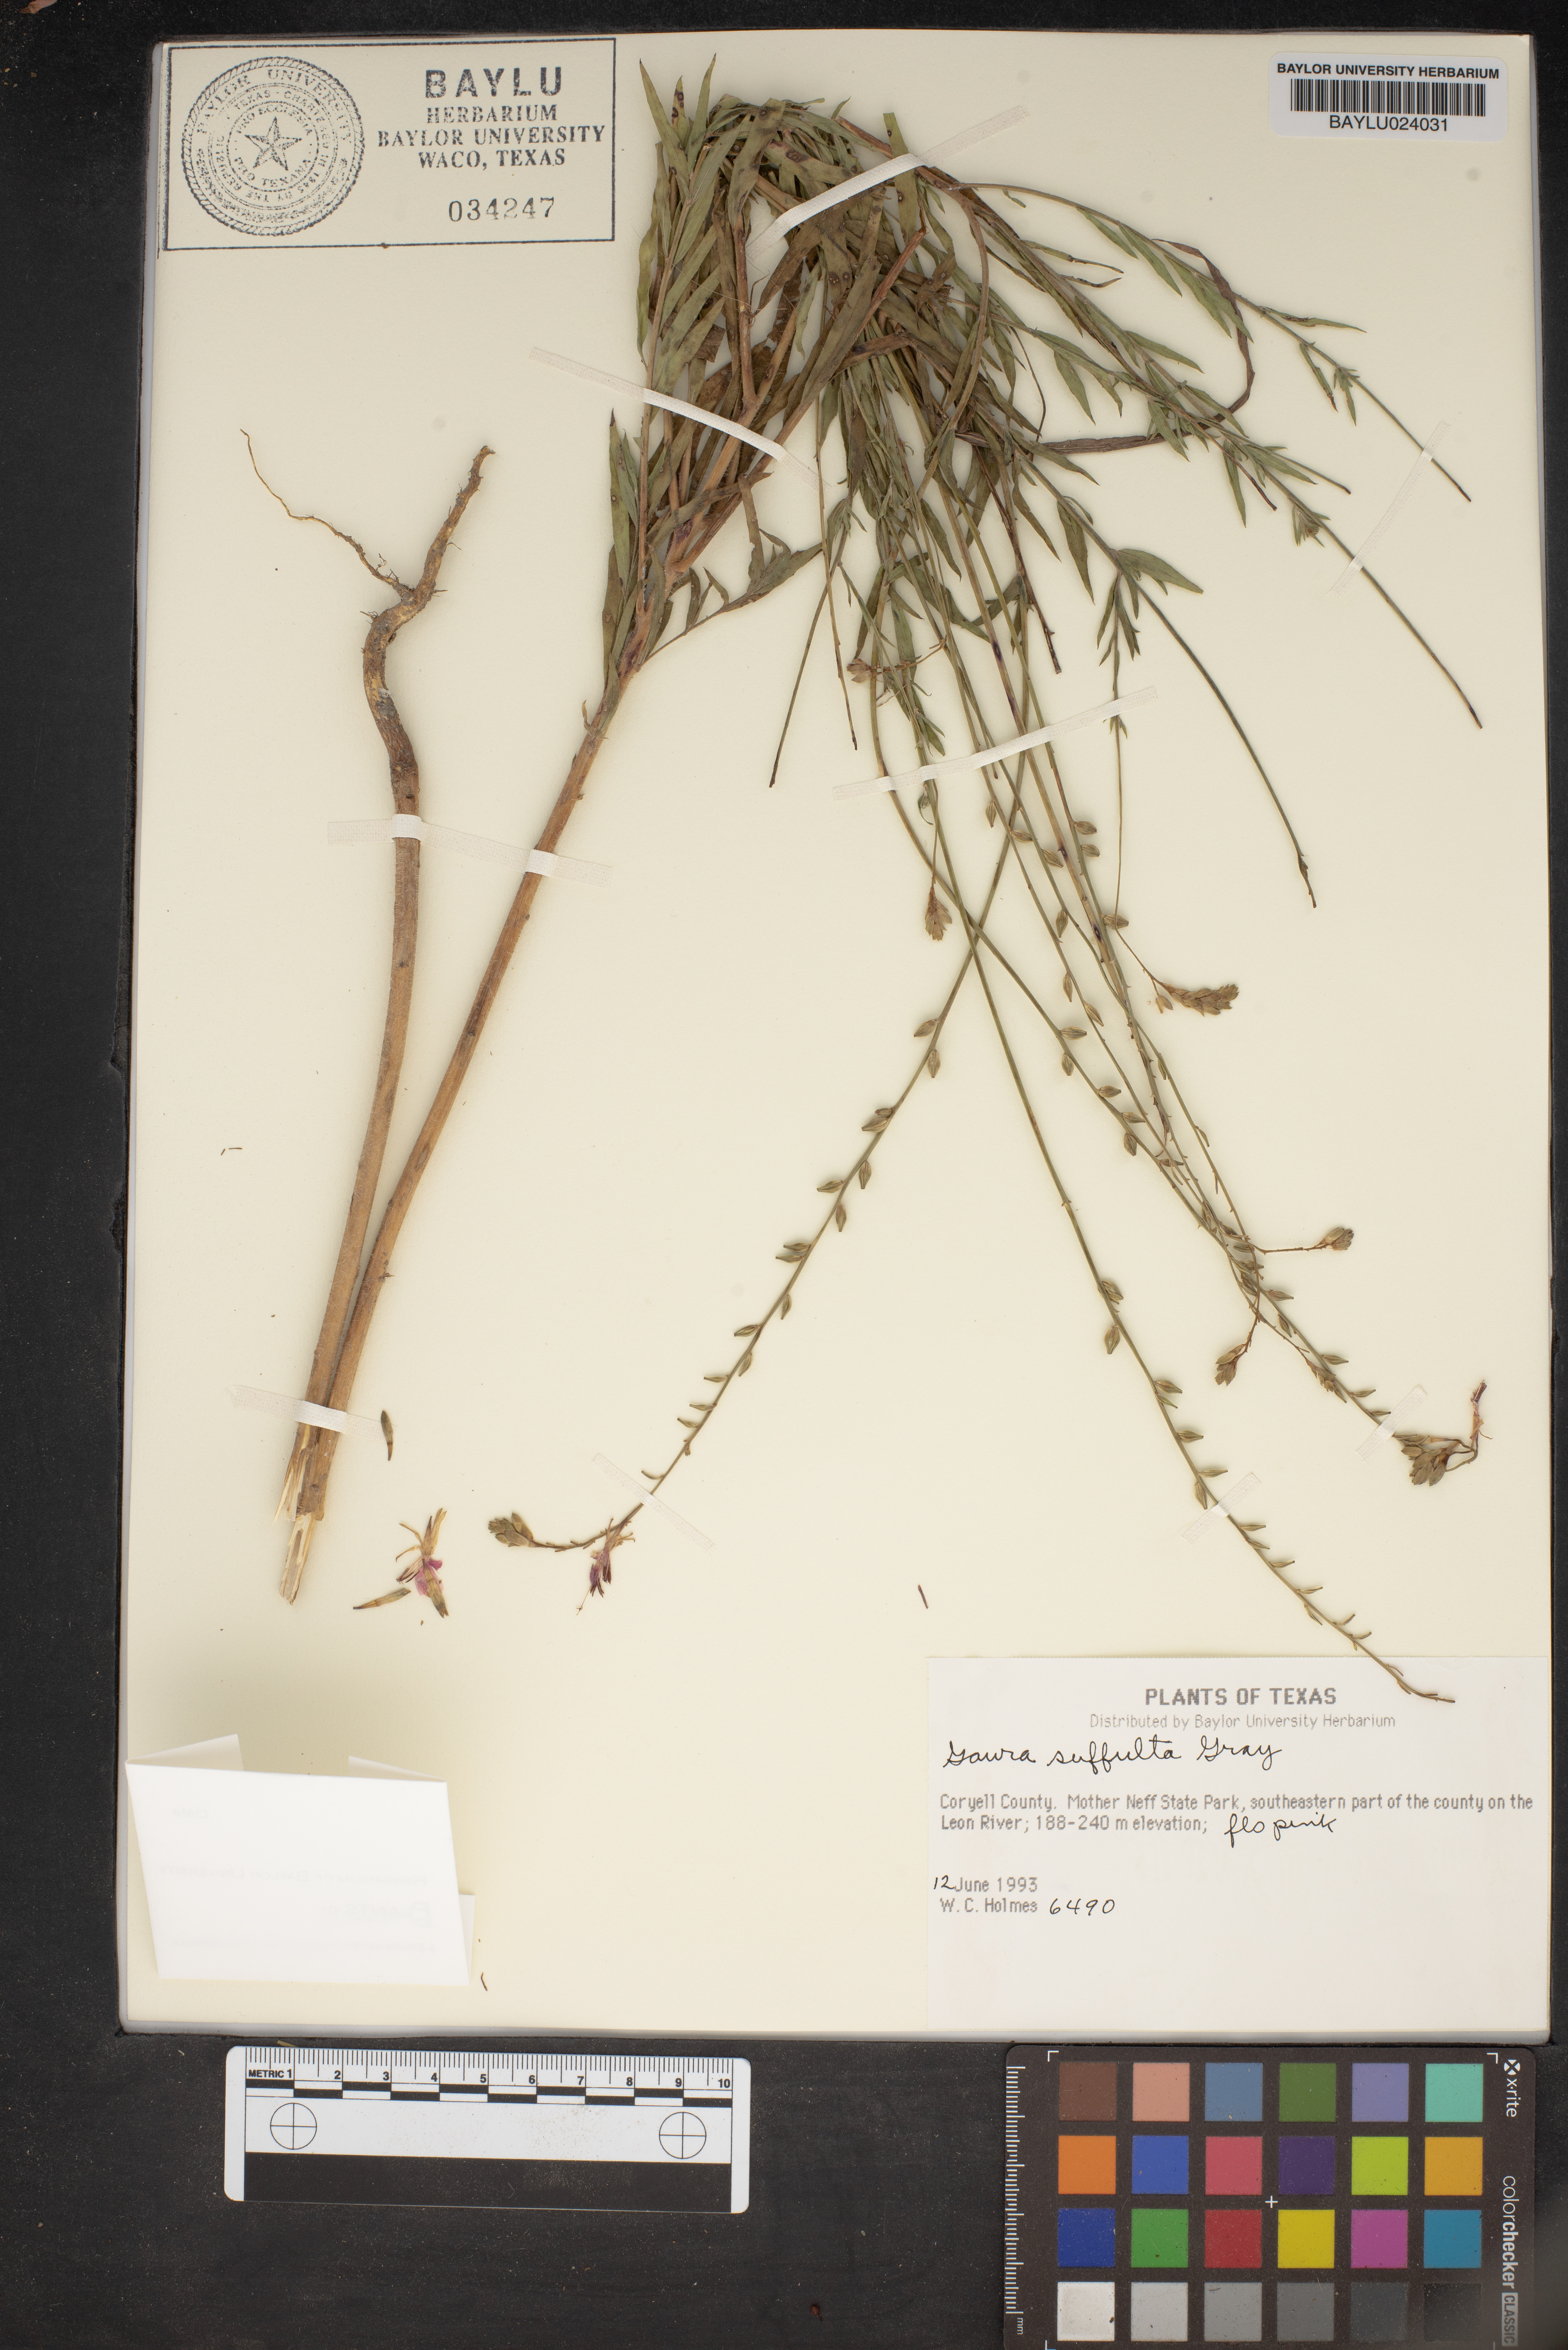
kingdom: Plantae
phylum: Tracheophyta
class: Magnoliopsida
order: Myrtales
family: Onagraceae
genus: Oenothera
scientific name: Oenothera Gaura suffulta
